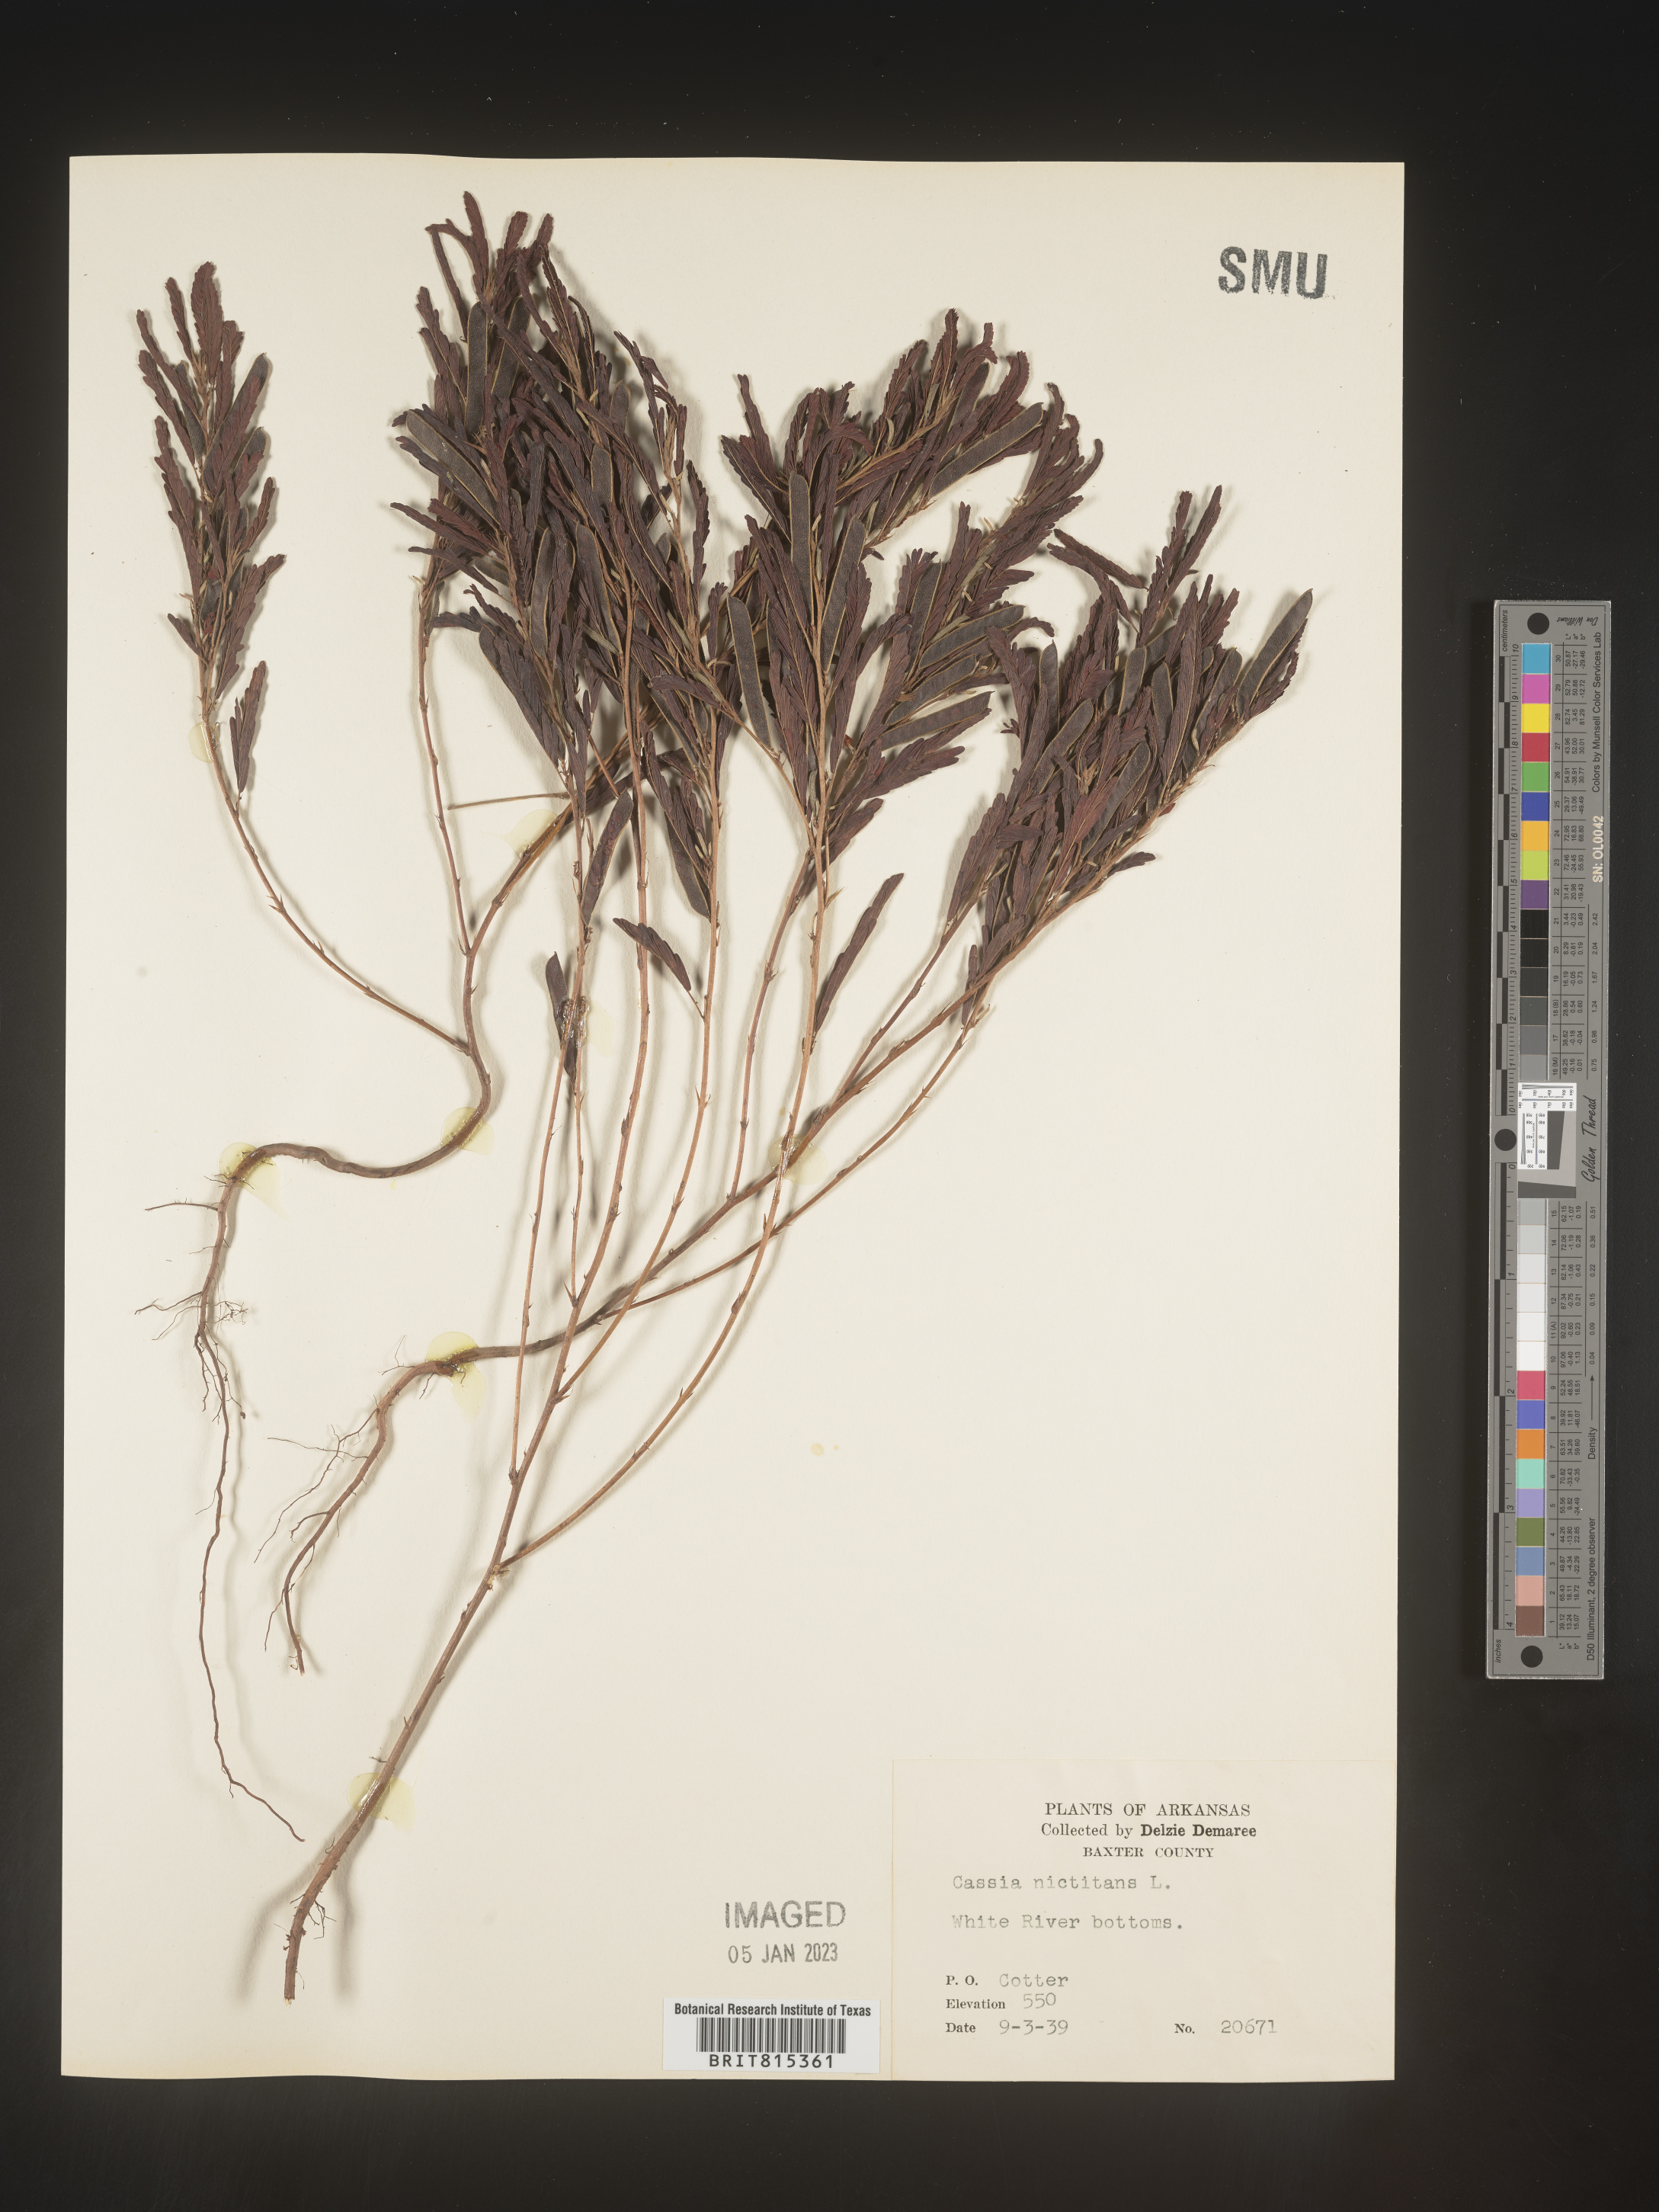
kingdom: Plantae
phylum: Tracheophyta
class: Magnoliopsida
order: Fabales
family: Fabaceae
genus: Chamaecrista
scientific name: Chamaecrista nictitans
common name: Sensitive cassia
